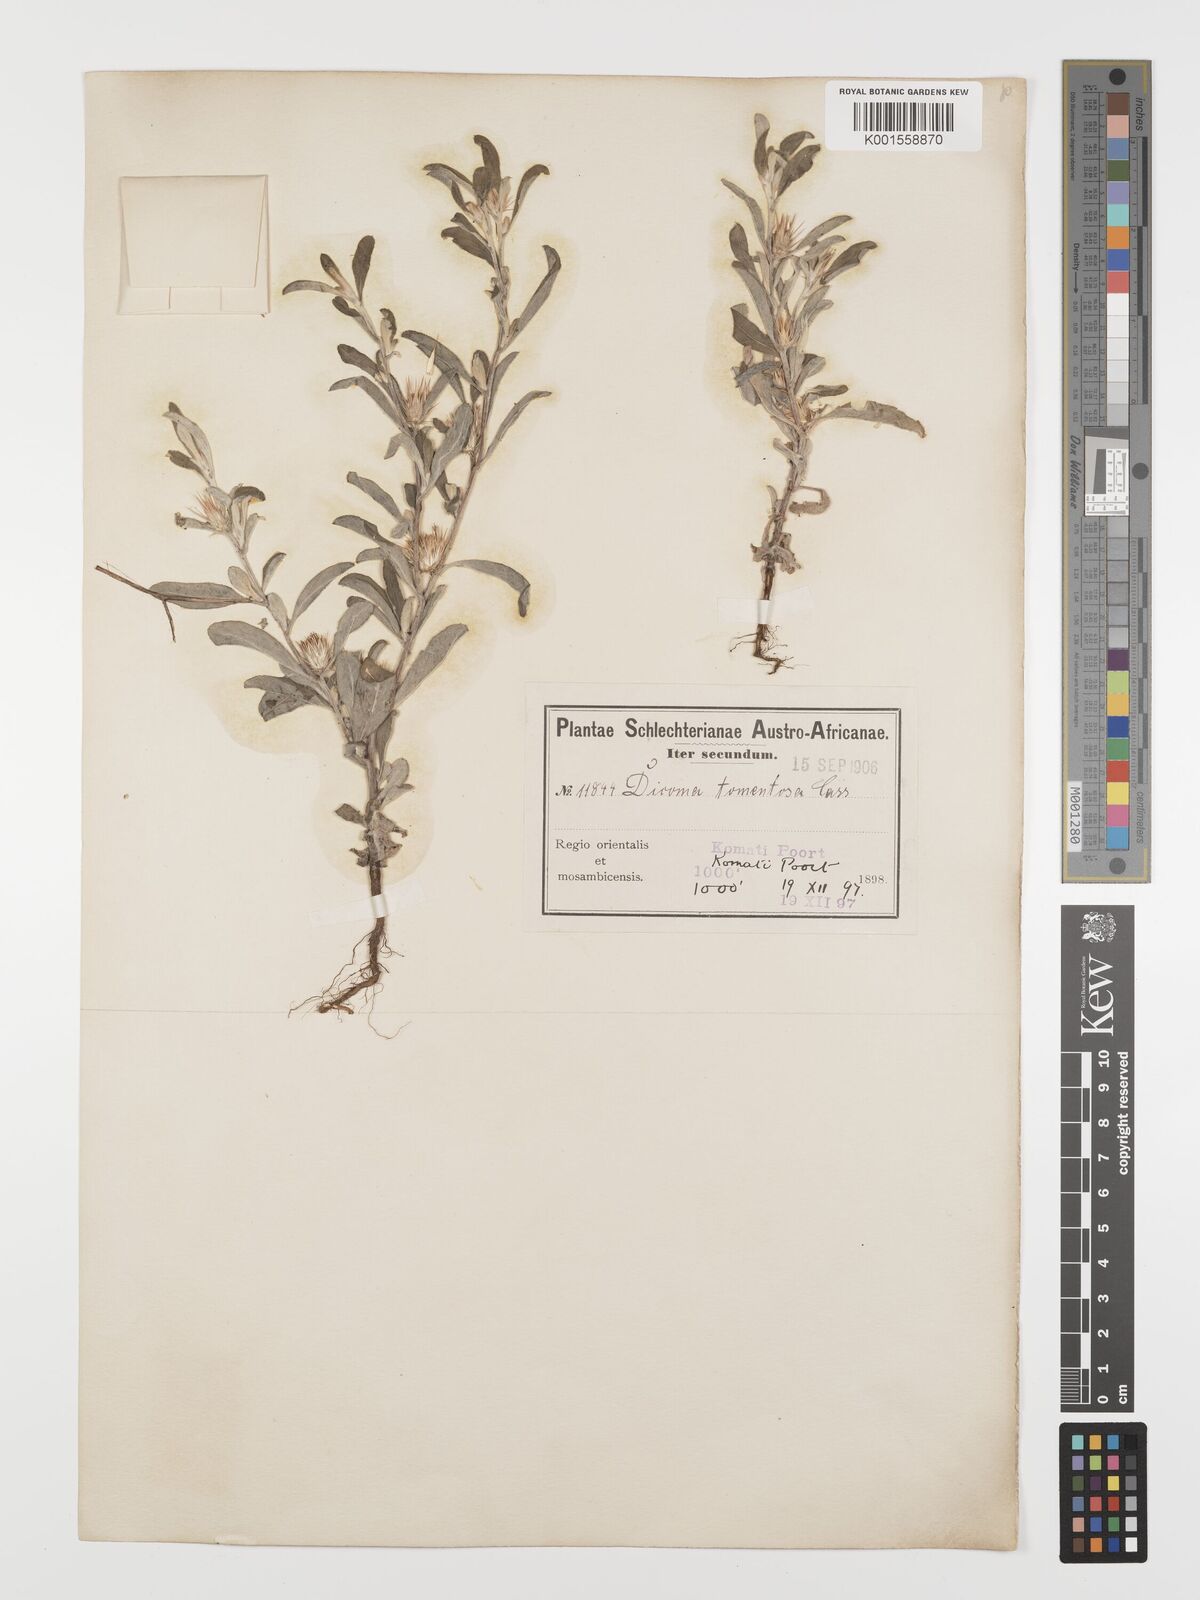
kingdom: Plantae
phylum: Tracheophyta
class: Magnoliopsida
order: Asterales
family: Asteraceae
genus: Dicoma
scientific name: Dicoma tomentosa
